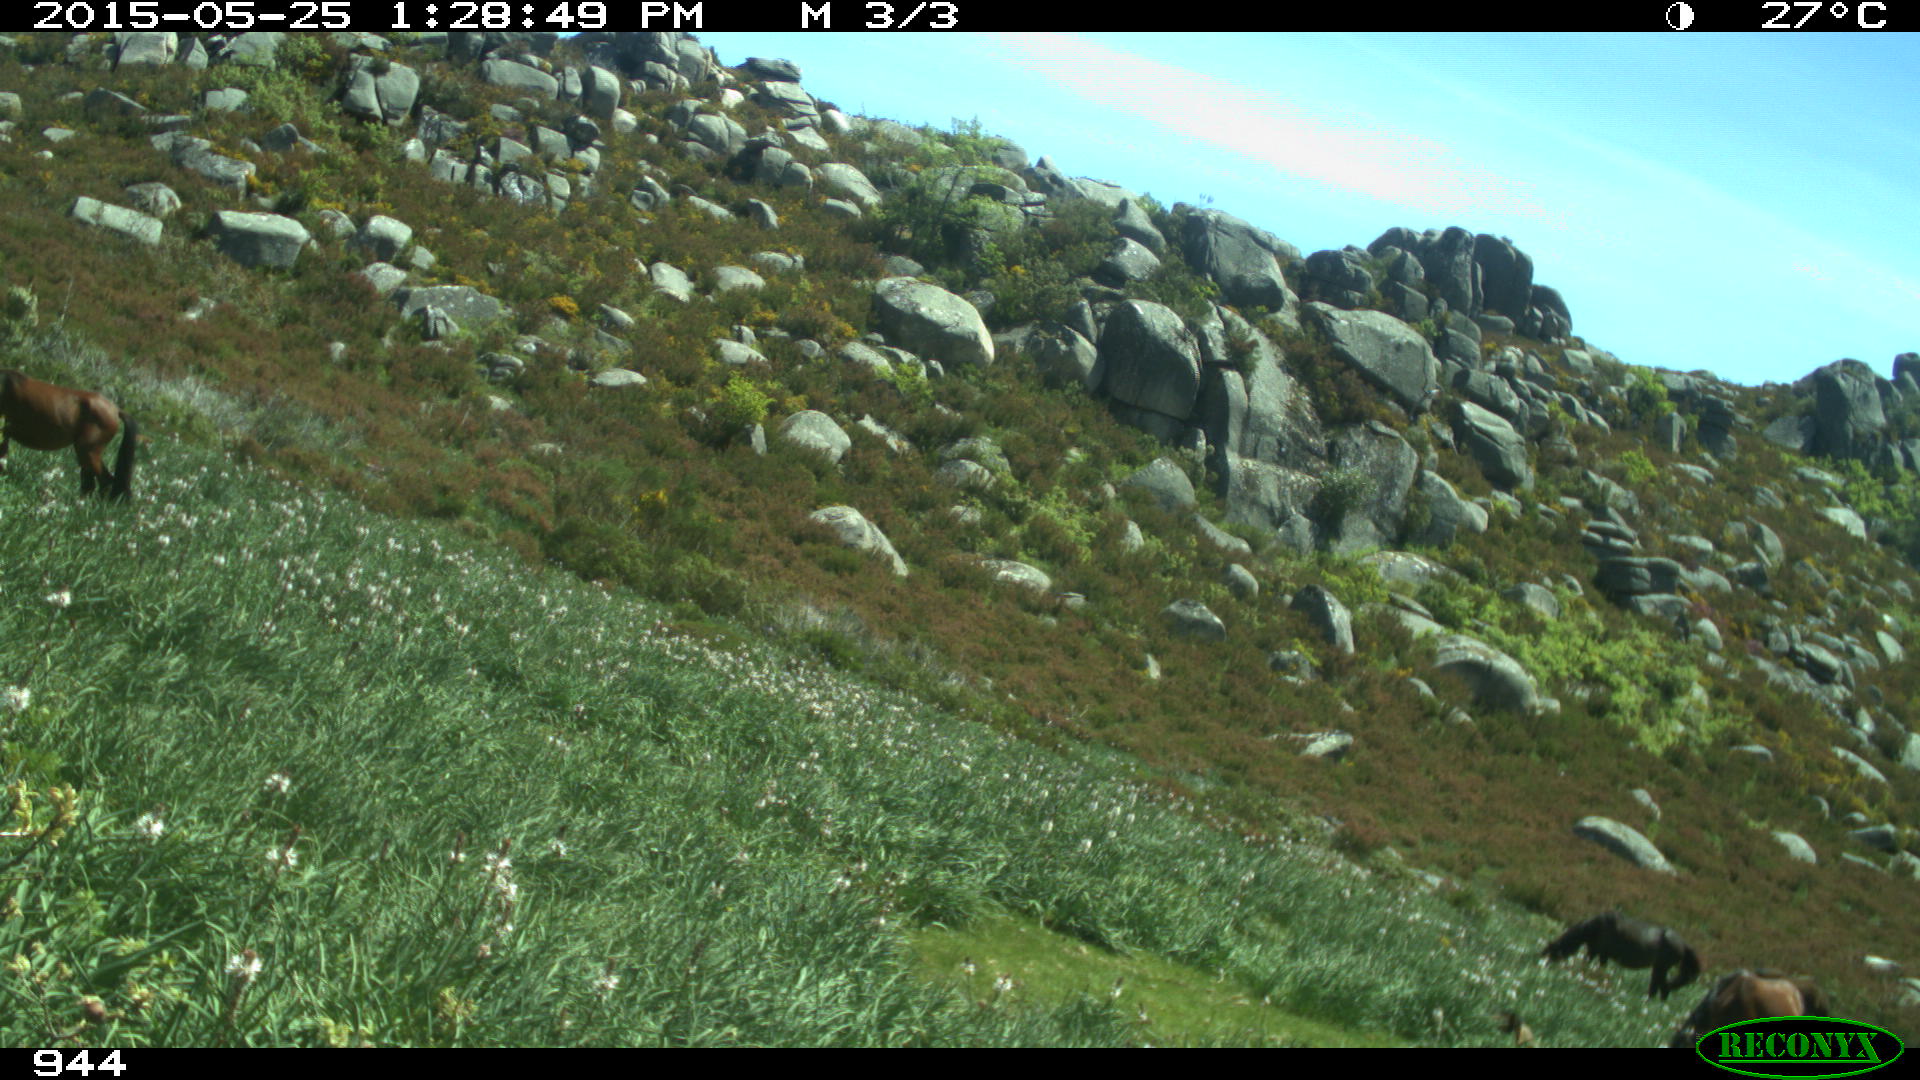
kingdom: Animalia
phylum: Chordata
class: Mammalia
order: Perissodactyla
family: Equidae
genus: Equus
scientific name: Equus caballus
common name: Horse
